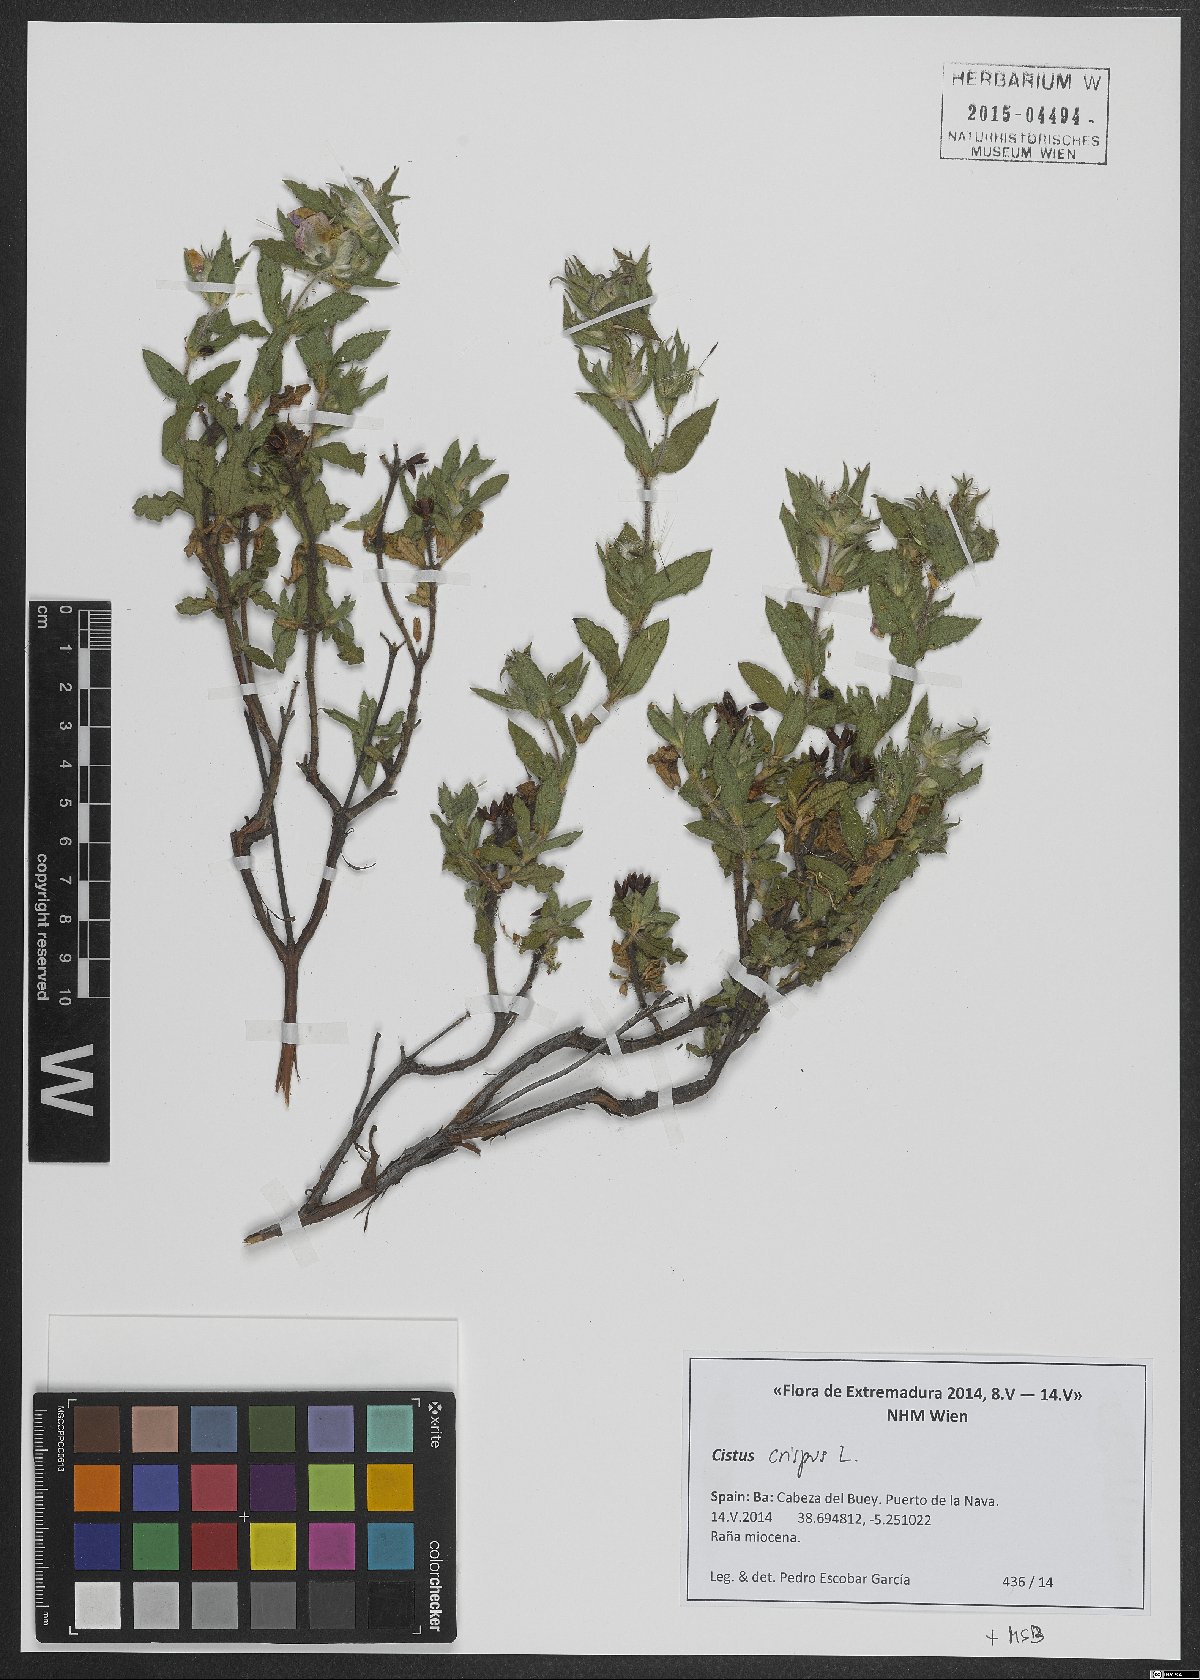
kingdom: Plantae
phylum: Tracheophyta
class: Magnoliopsida
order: Malvales
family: Cistaceae
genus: Cistus
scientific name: Cistus crispus
